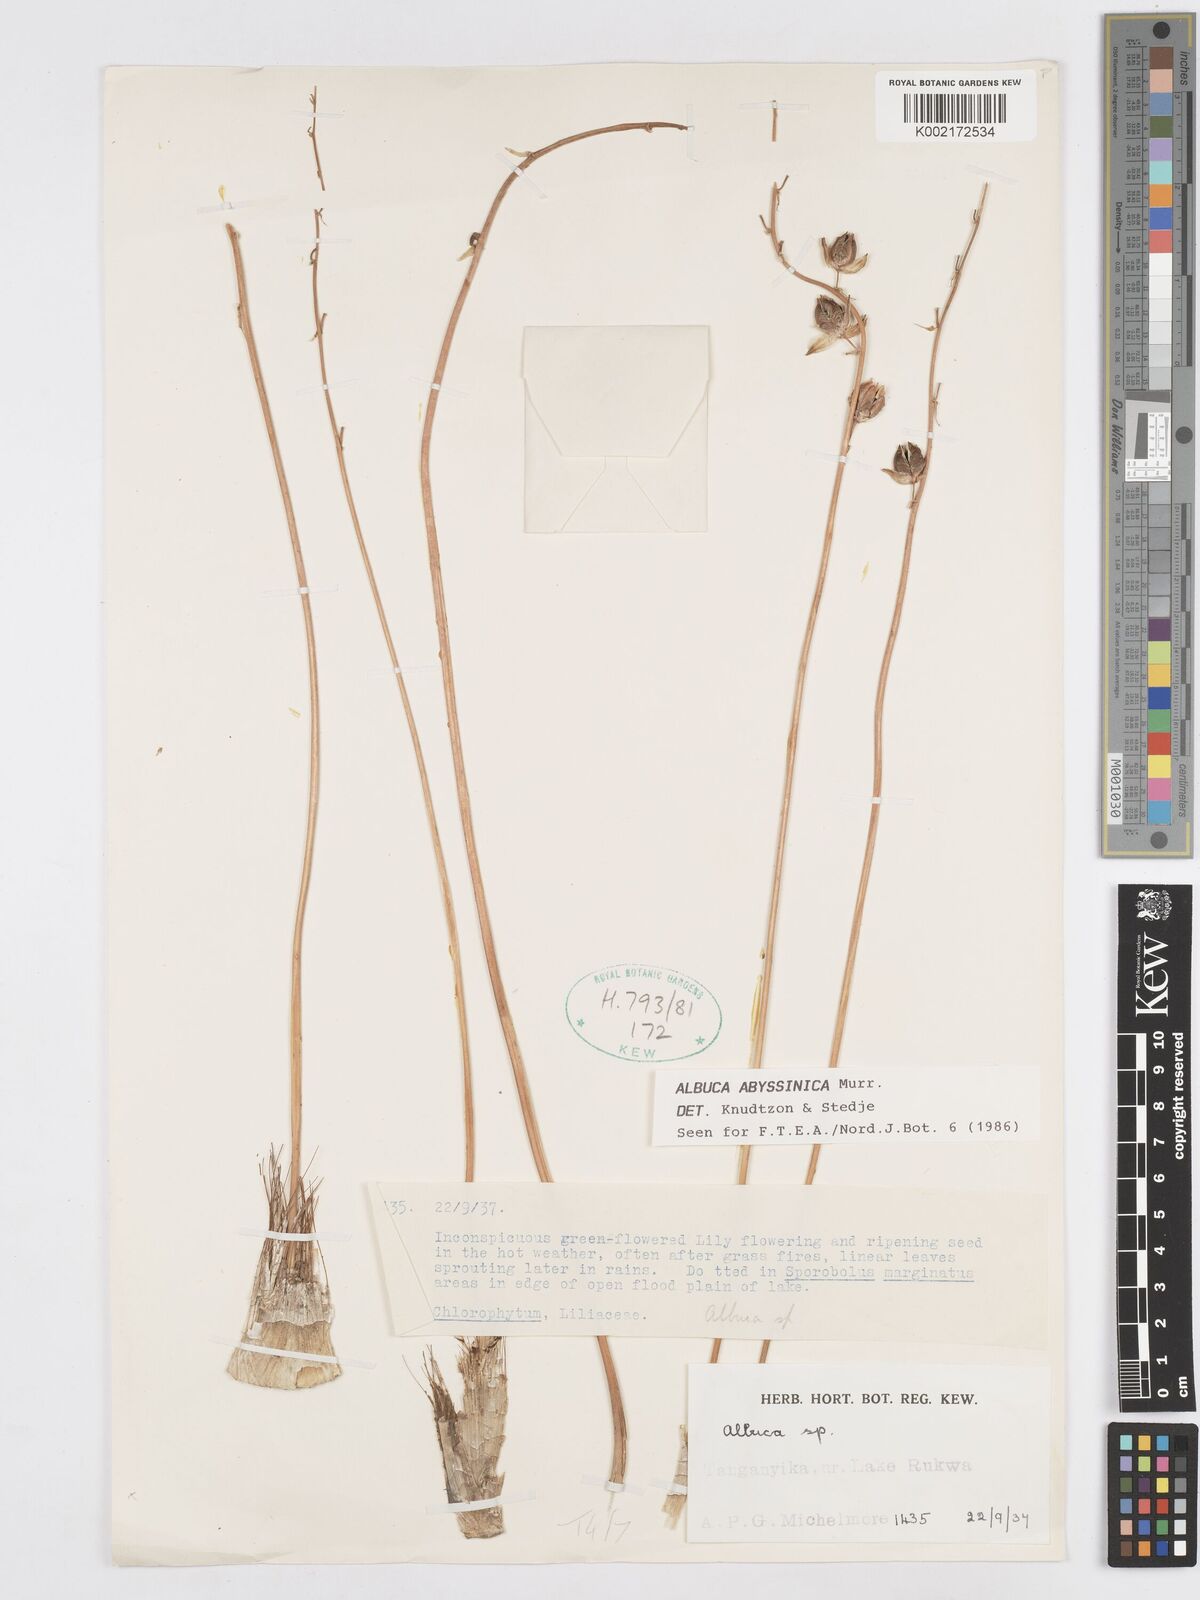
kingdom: Plantae
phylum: Tracheophyta
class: Liliopsida
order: Asparagales
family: Asparagaceae
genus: Albuca
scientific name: Albuca abyssinica
